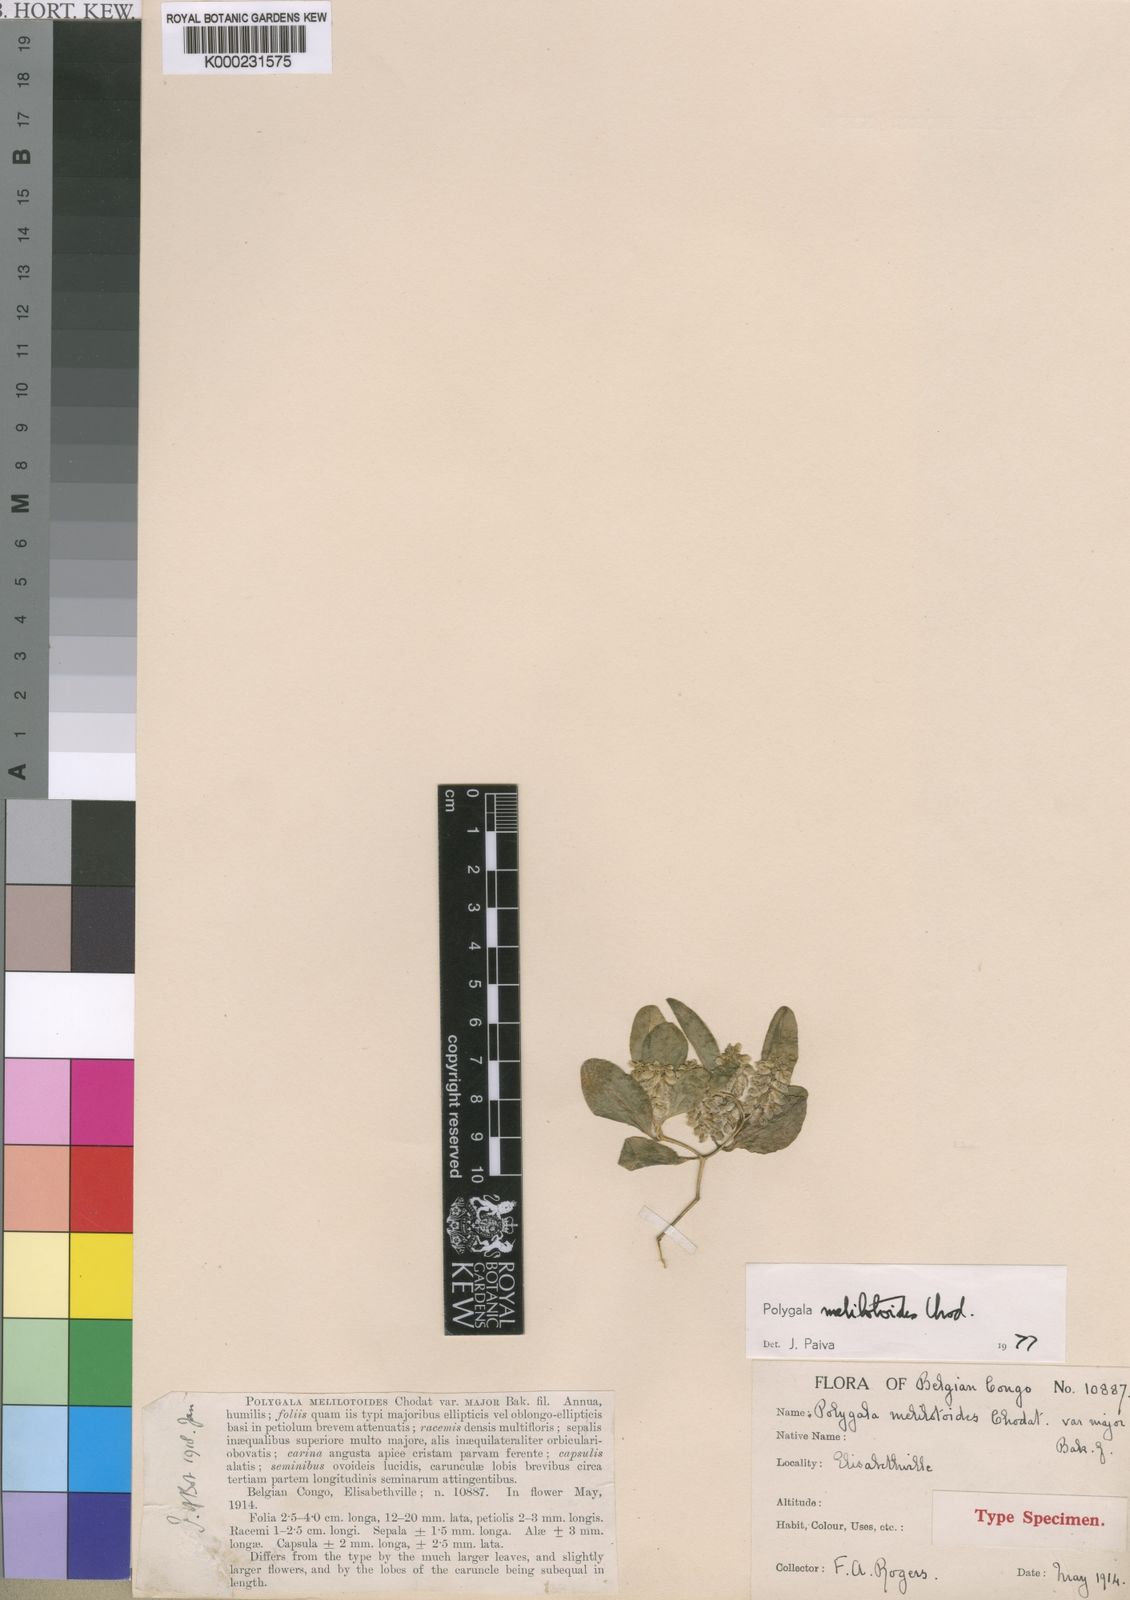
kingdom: Plantae
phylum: Tracheophyta
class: Magnoliopsida
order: Fabales
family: Polygalaceae
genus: Polygala
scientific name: Polygala melilotoides
